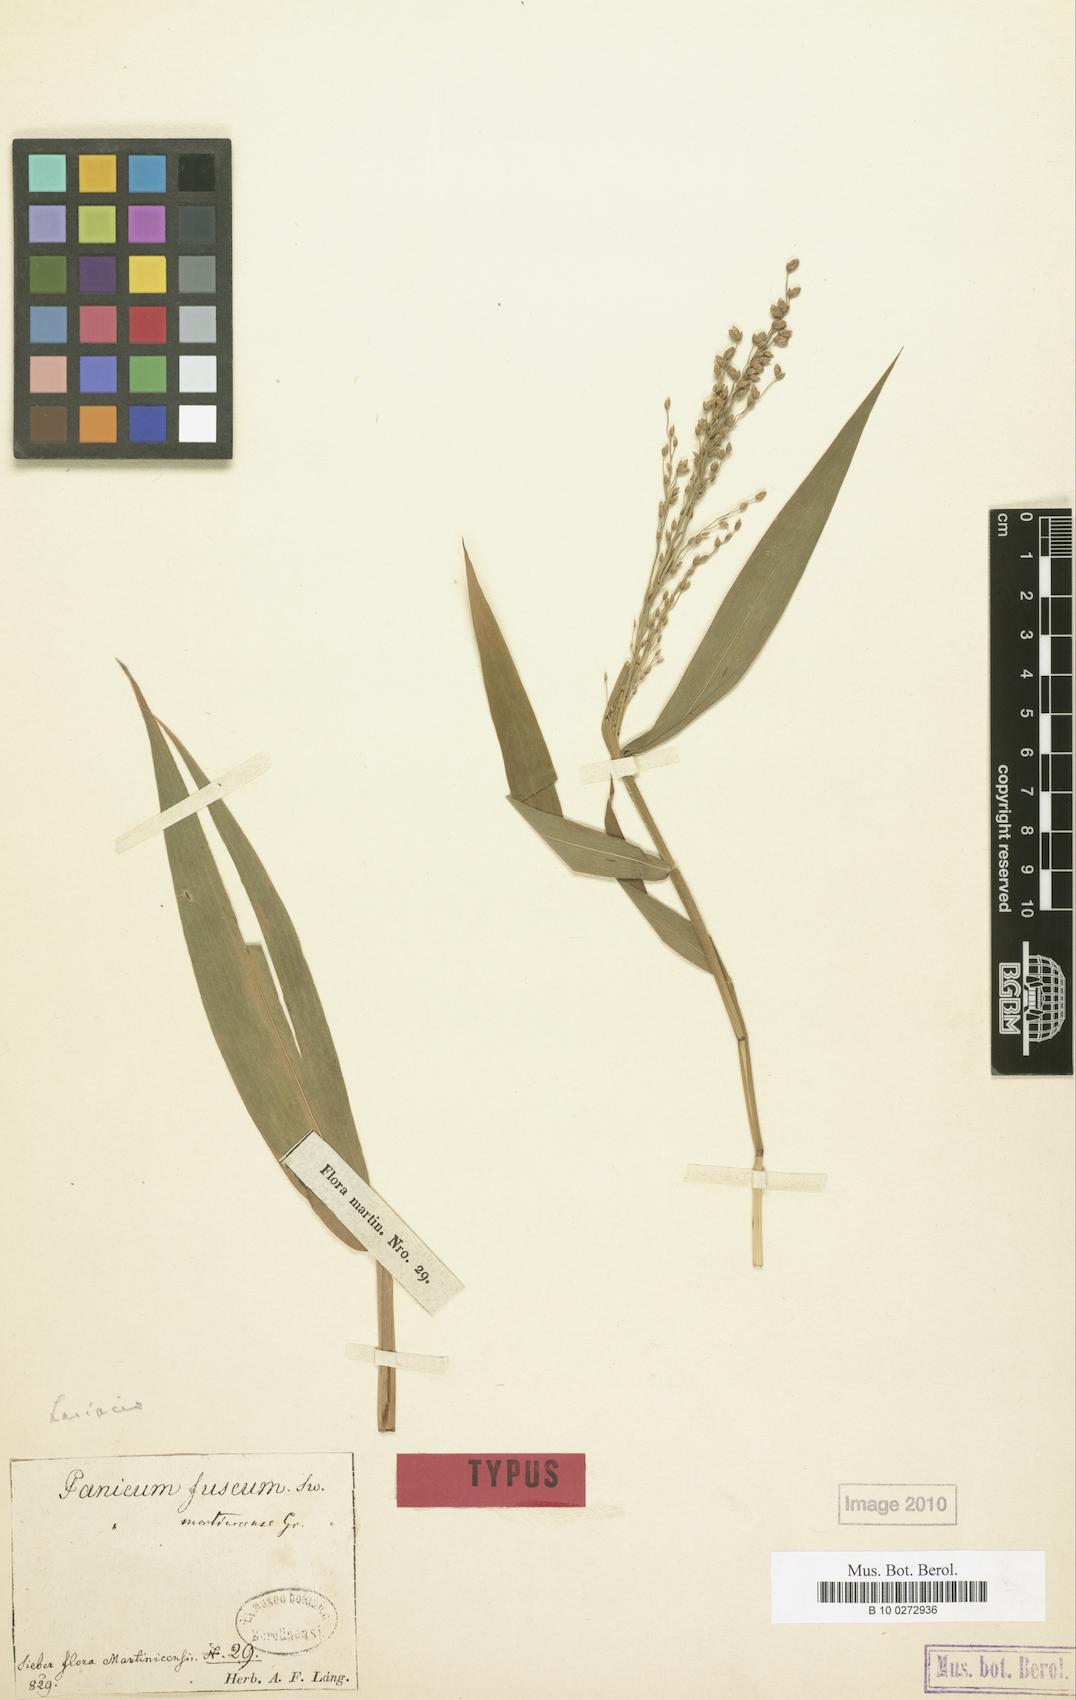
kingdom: Plantae
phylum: Tracheophyta
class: Liliopsida
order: Poales
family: Poaceae
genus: Lasiacis
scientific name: Lasiacis maculata
